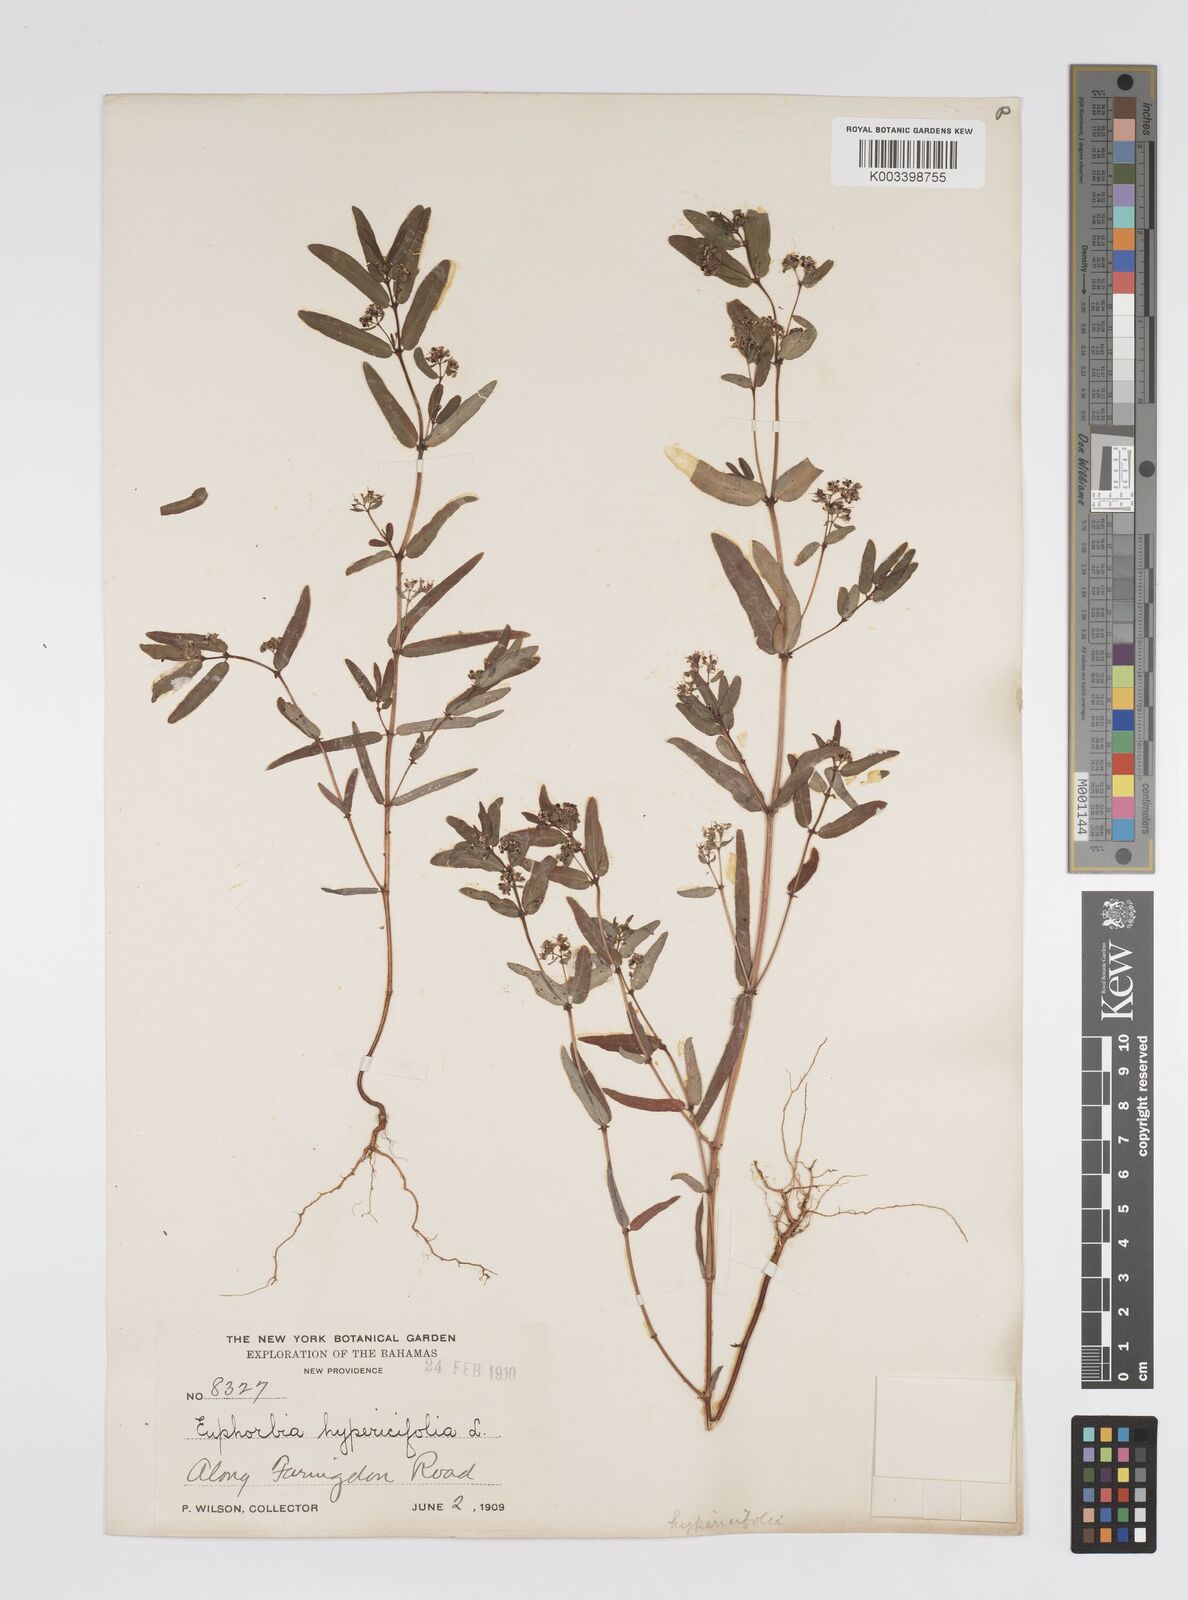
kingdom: Plantae
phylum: Tracheophyta
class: Magnoliopsida
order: Malpighiales
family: Euphorbiaceae
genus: Euphorbia
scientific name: Euphorbia
